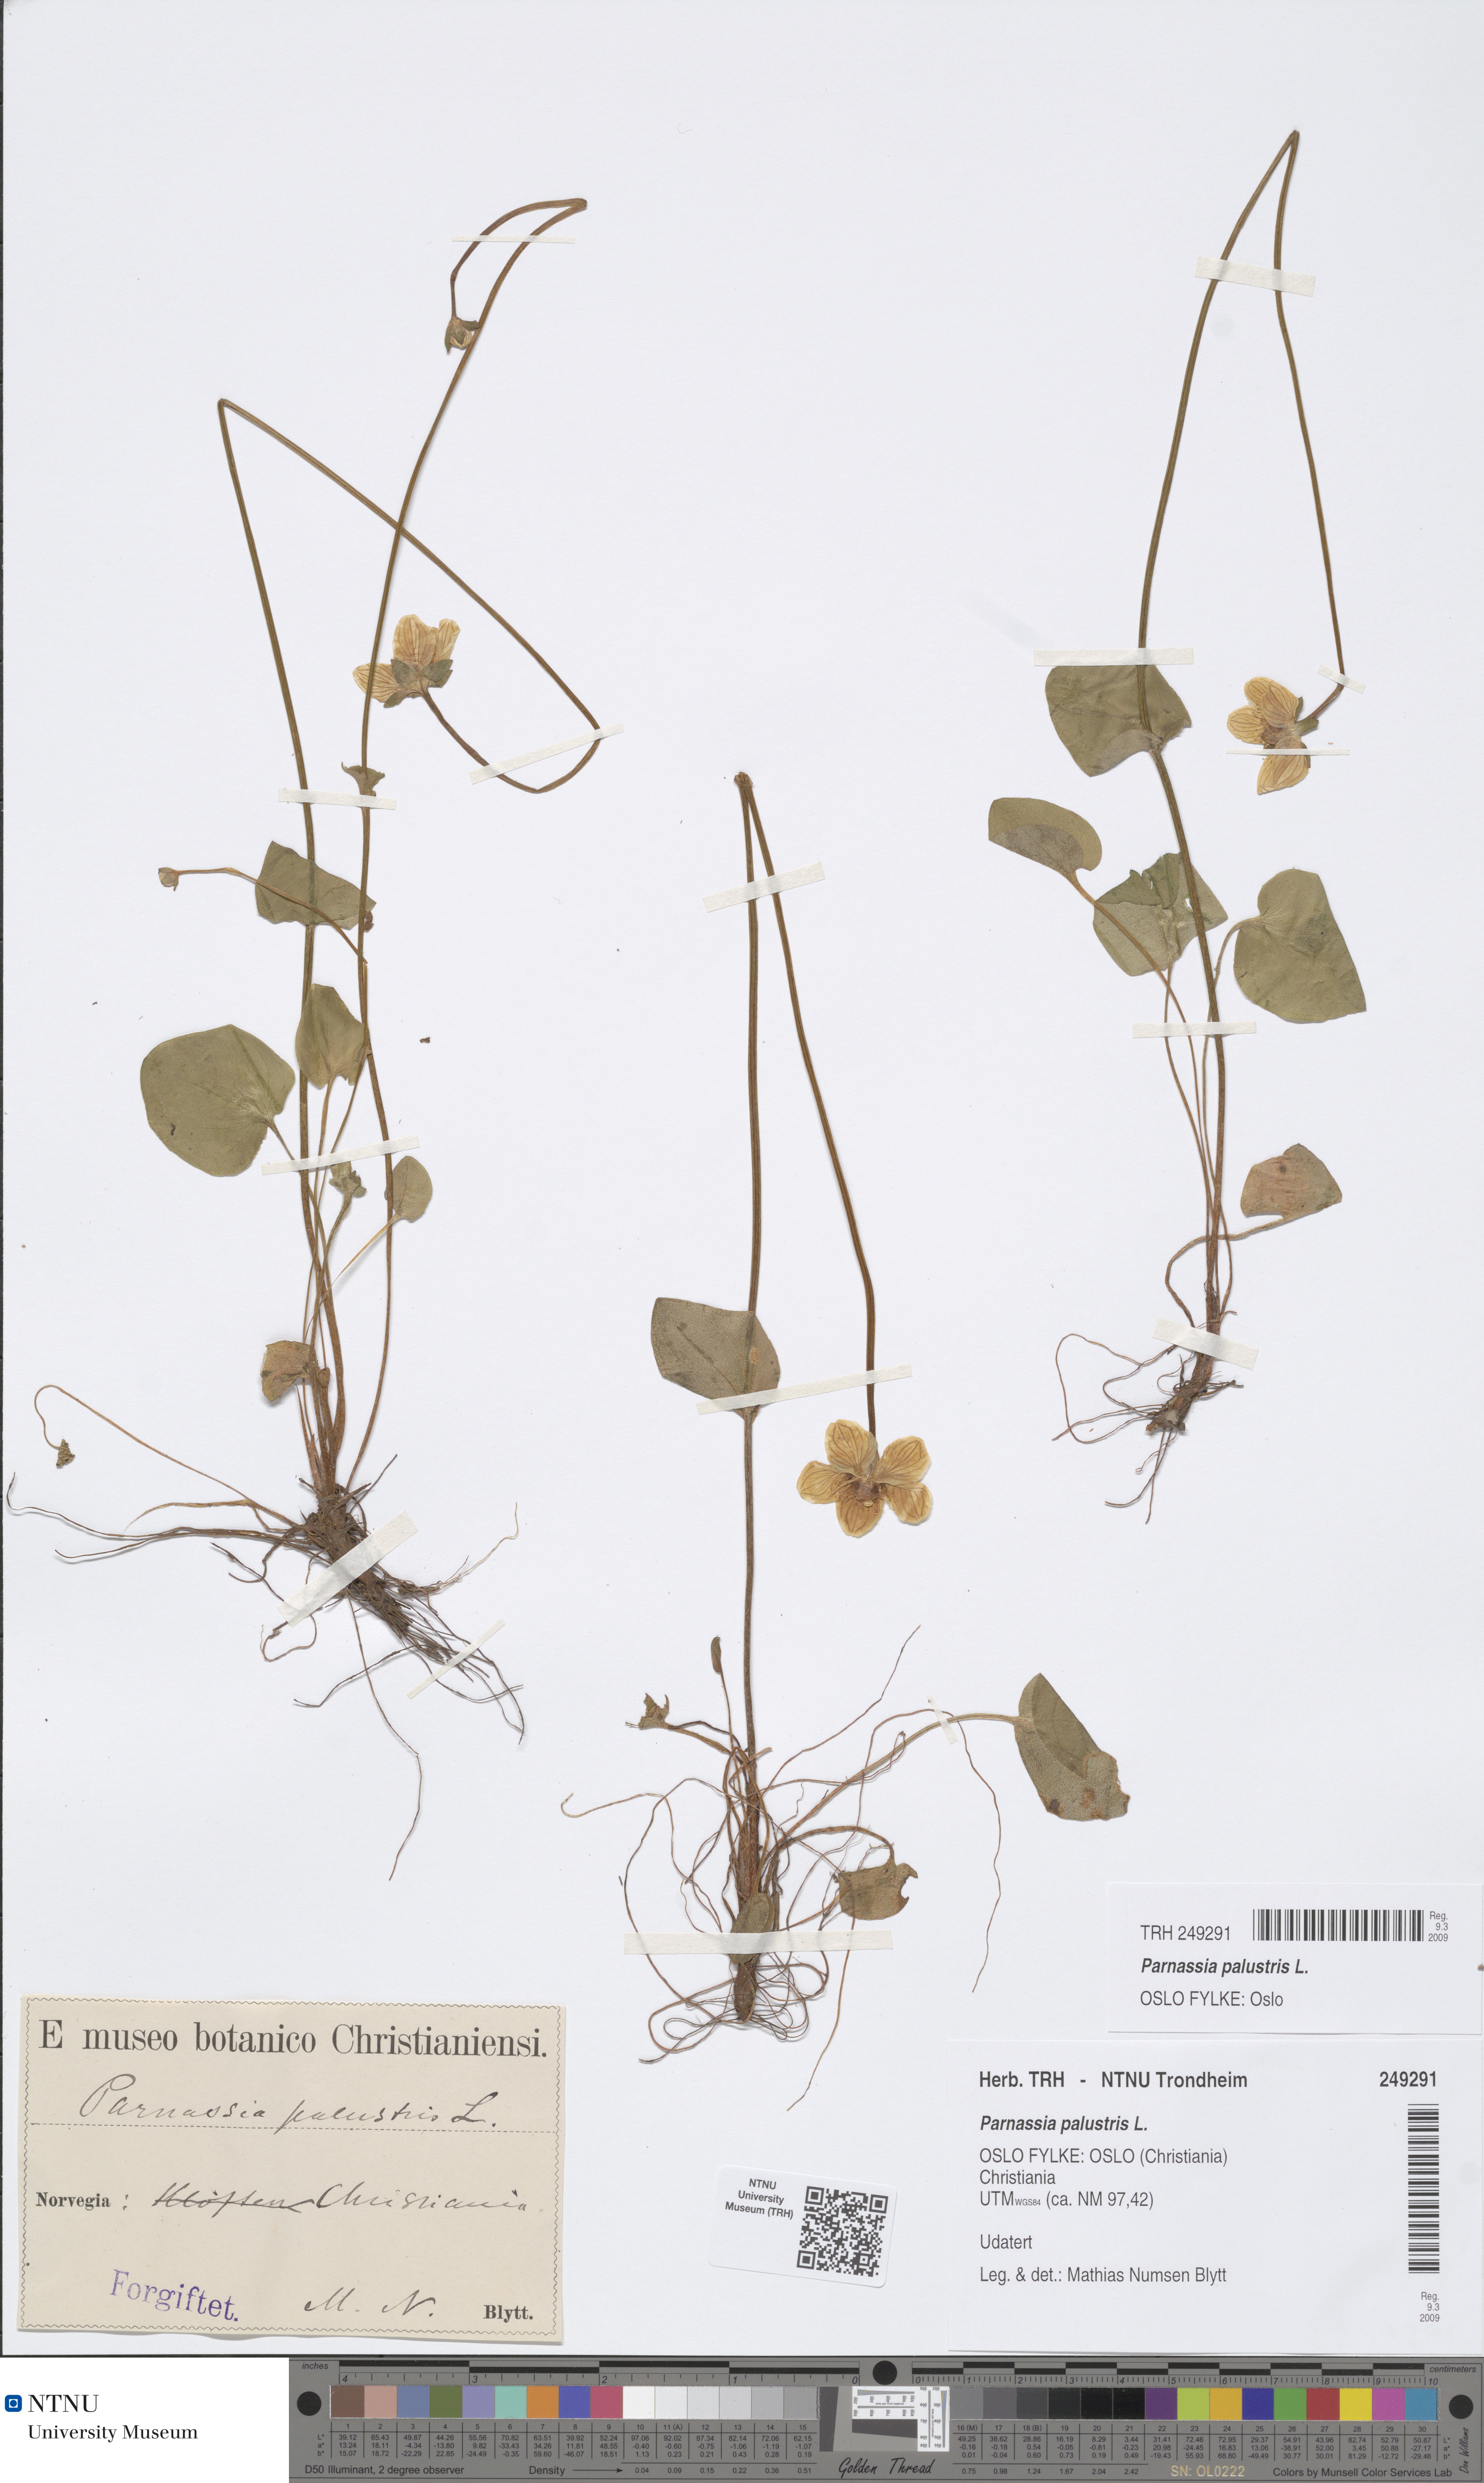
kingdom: Plantae
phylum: Tracheophyta
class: Magnoliopsida
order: Celastrales
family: Parnassiaceae
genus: Parnassia
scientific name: Parnassia palustris
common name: Grass-of-parnassus
